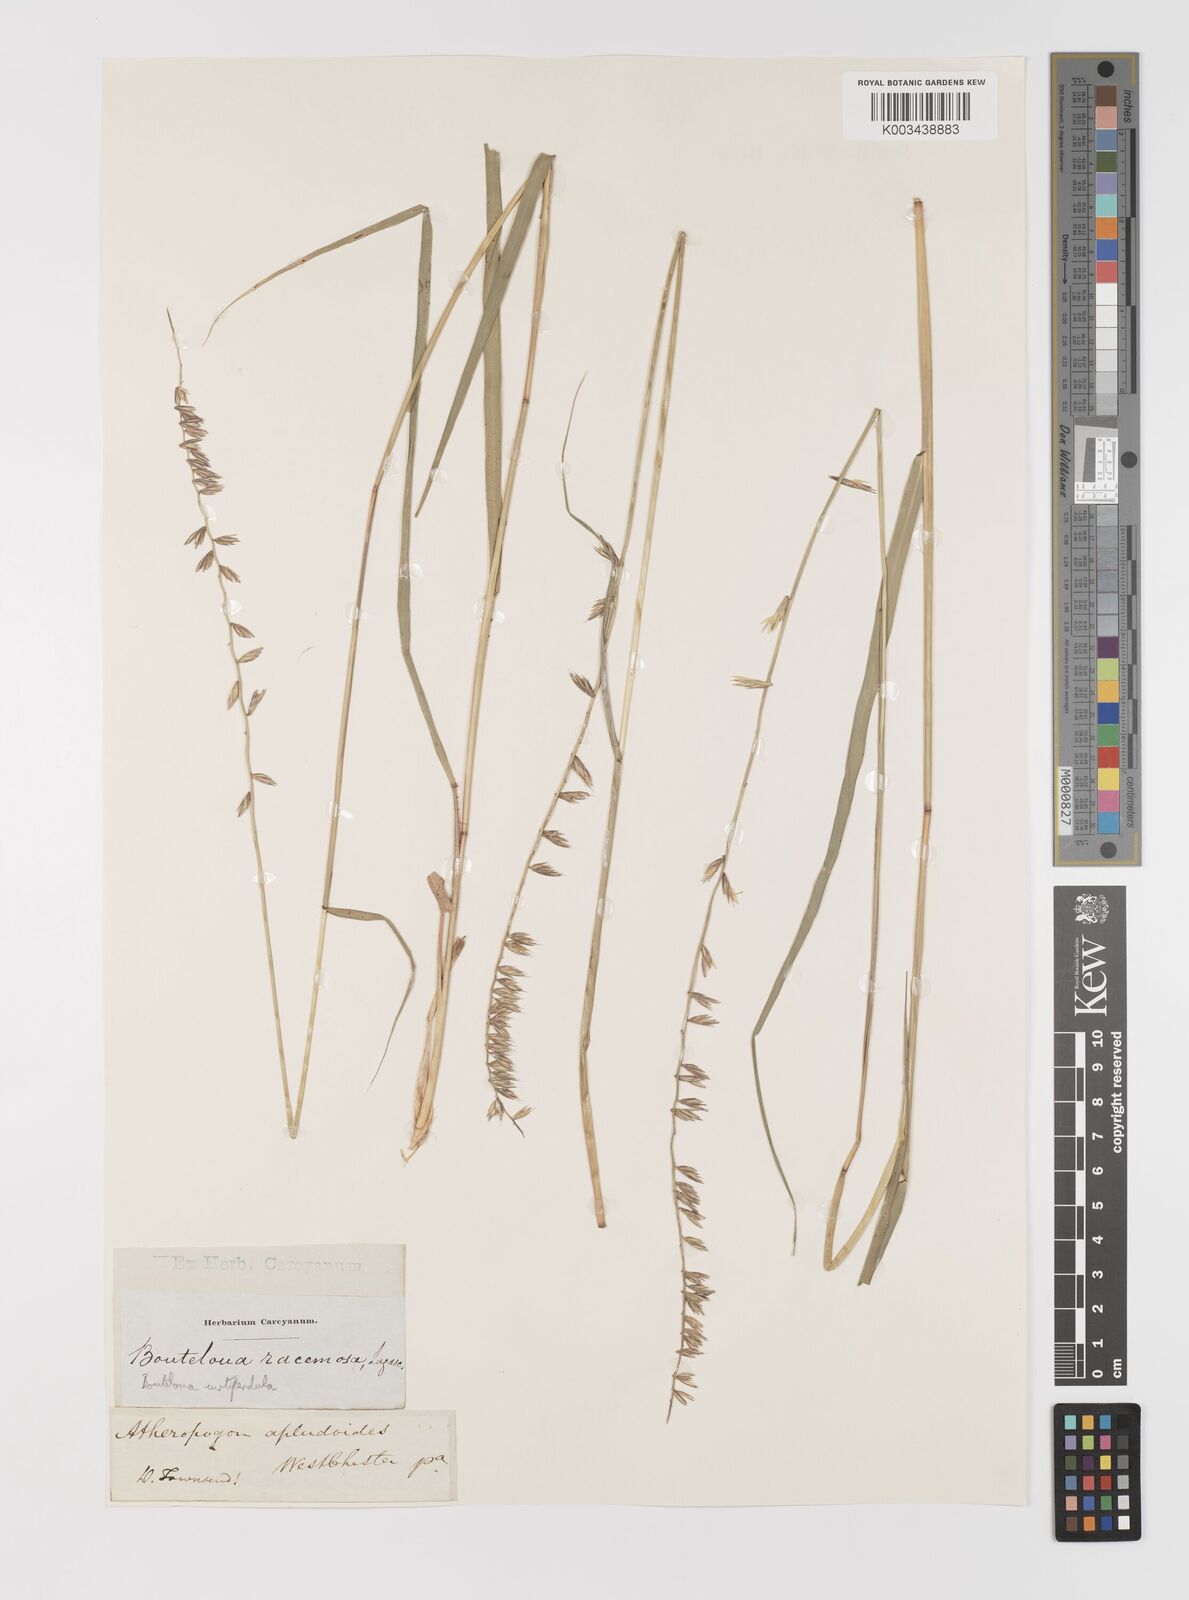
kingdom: Plantae
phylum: Tracheophyta
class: Liliopsida
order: Poales
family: Poaceae
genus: Bouteloua
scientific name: Bouteloua curtipendula
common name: Side-oats grama
